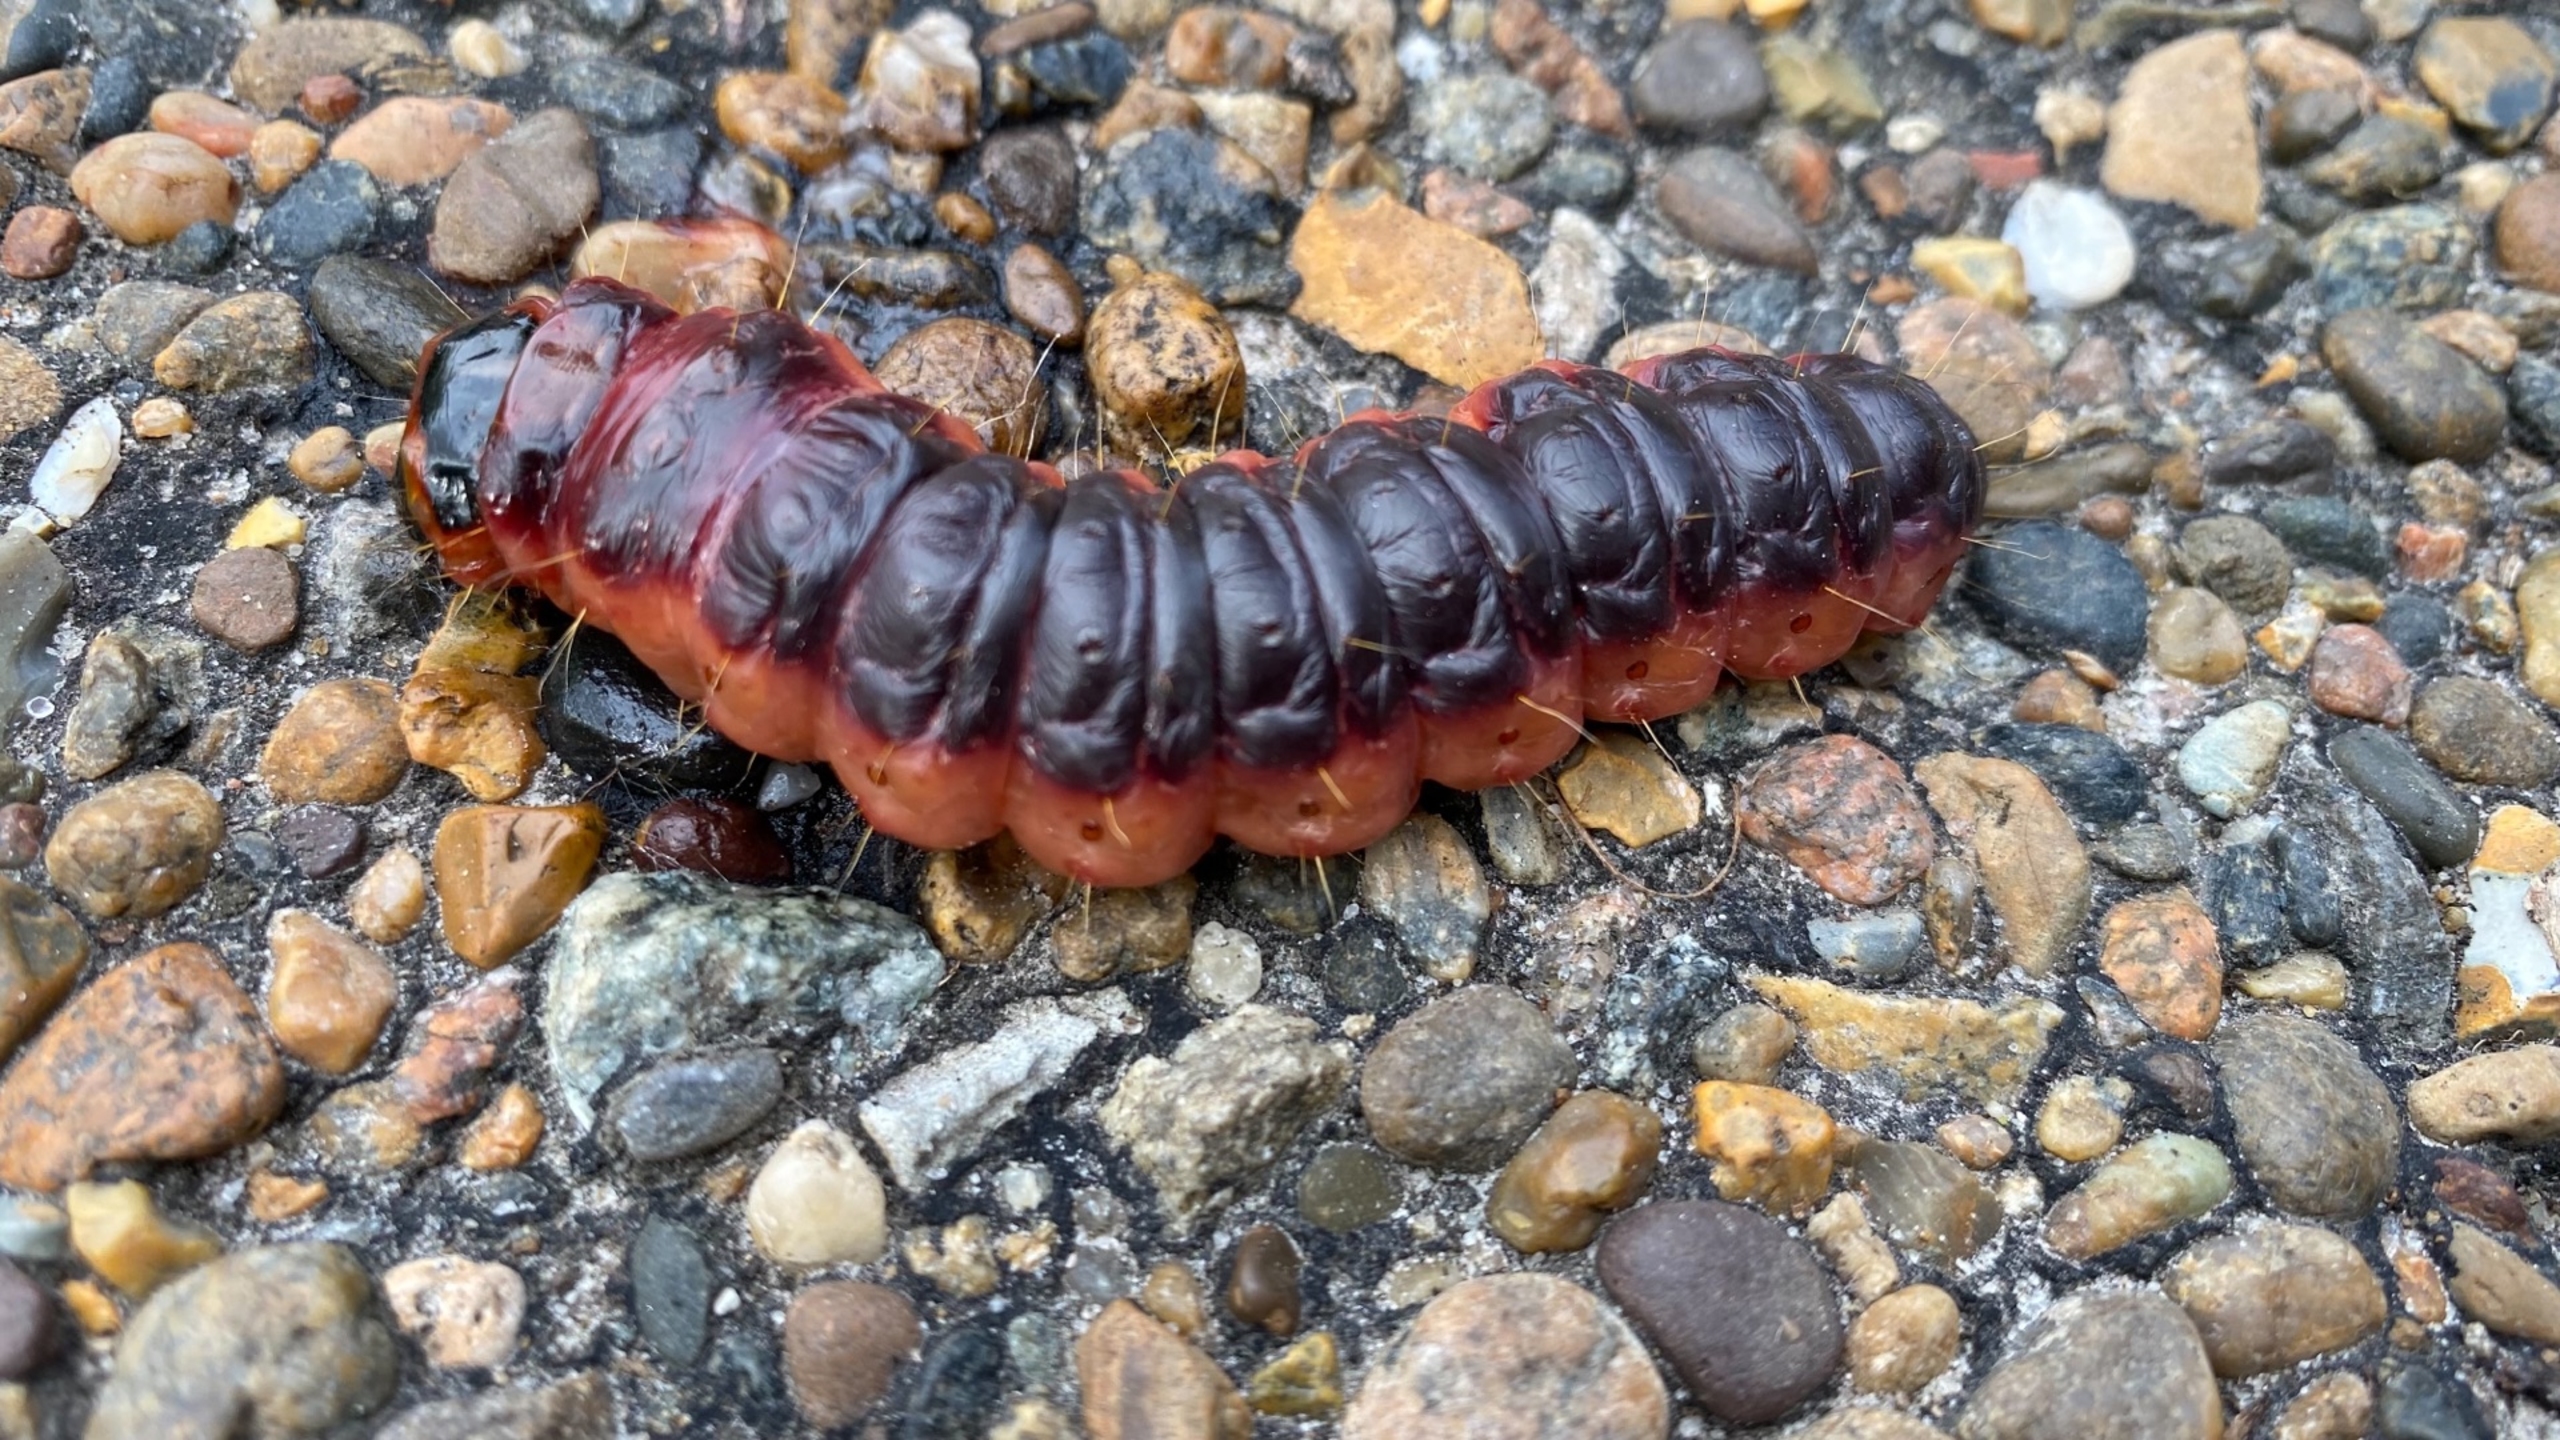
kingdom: Animalia
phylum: Arthropoda
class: Insecta
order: Lepidoptera
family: Cossidae
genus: Cossus
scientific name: Cossus cossus
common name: Pileborer
